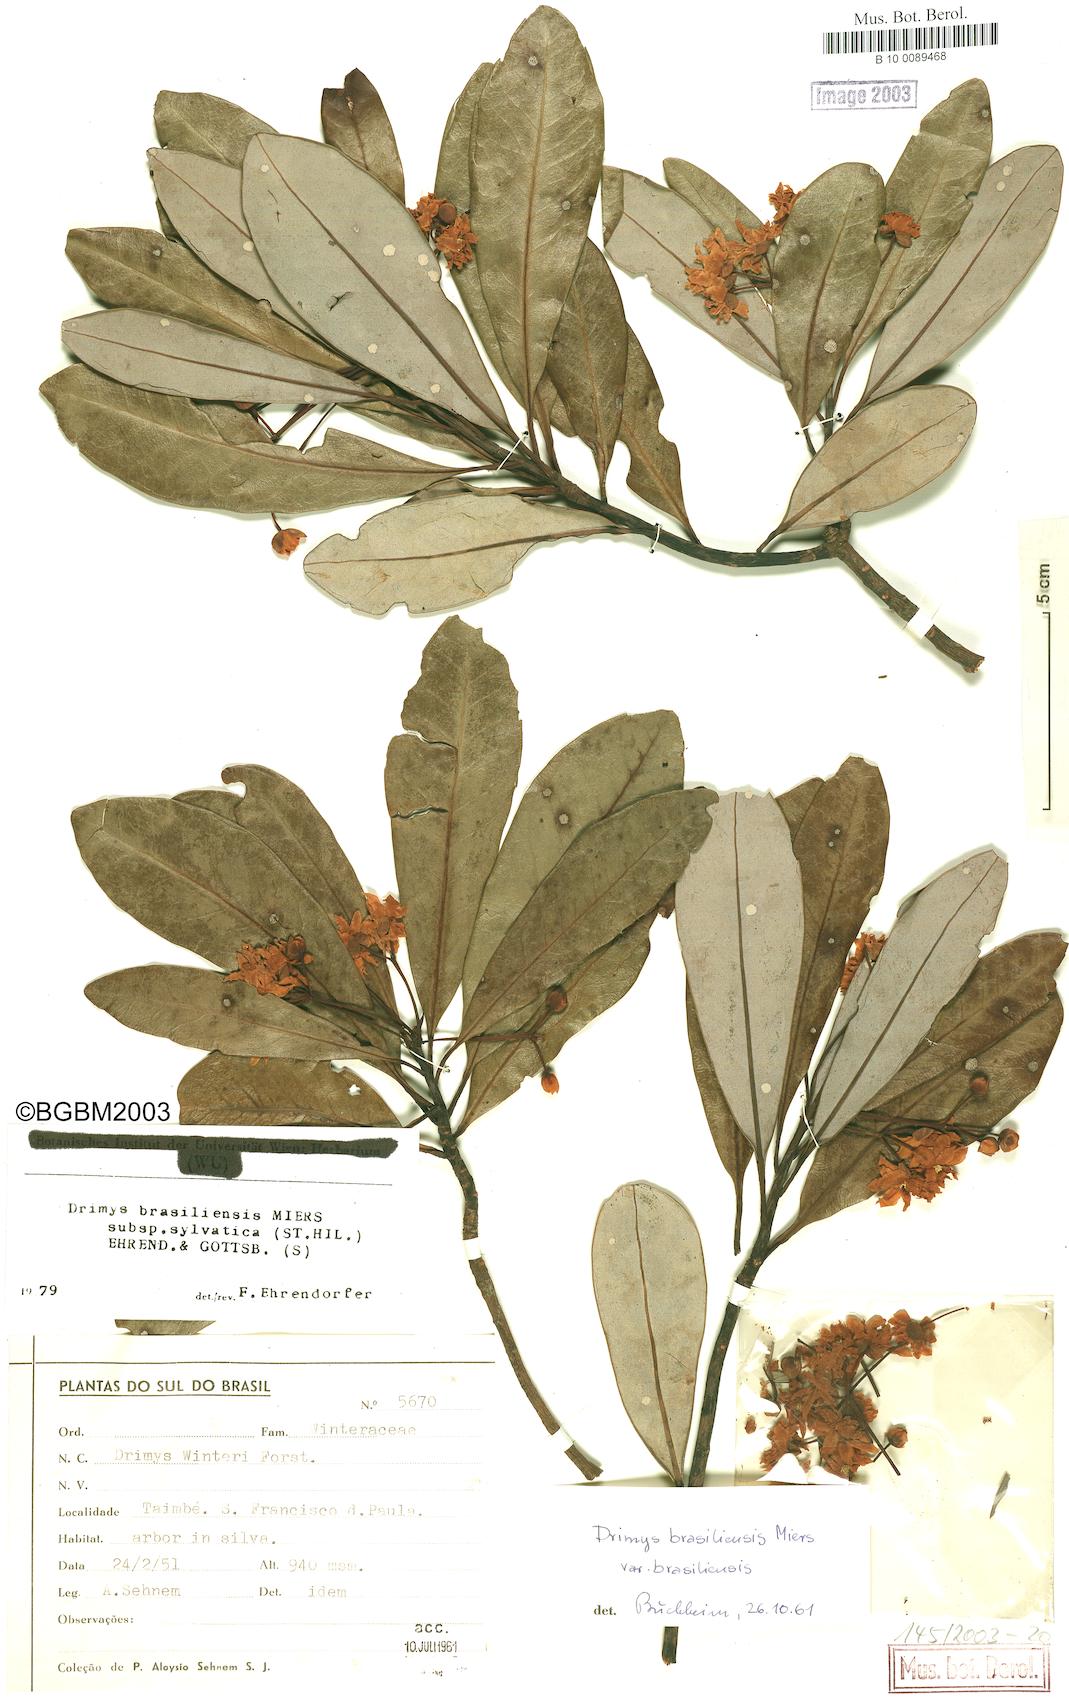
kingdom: Plantae
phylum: Tracheophyta
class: Magnoliopsida
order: Canellales
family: Winteraceae
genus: Drimys
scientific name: Drimys brasiliensis
